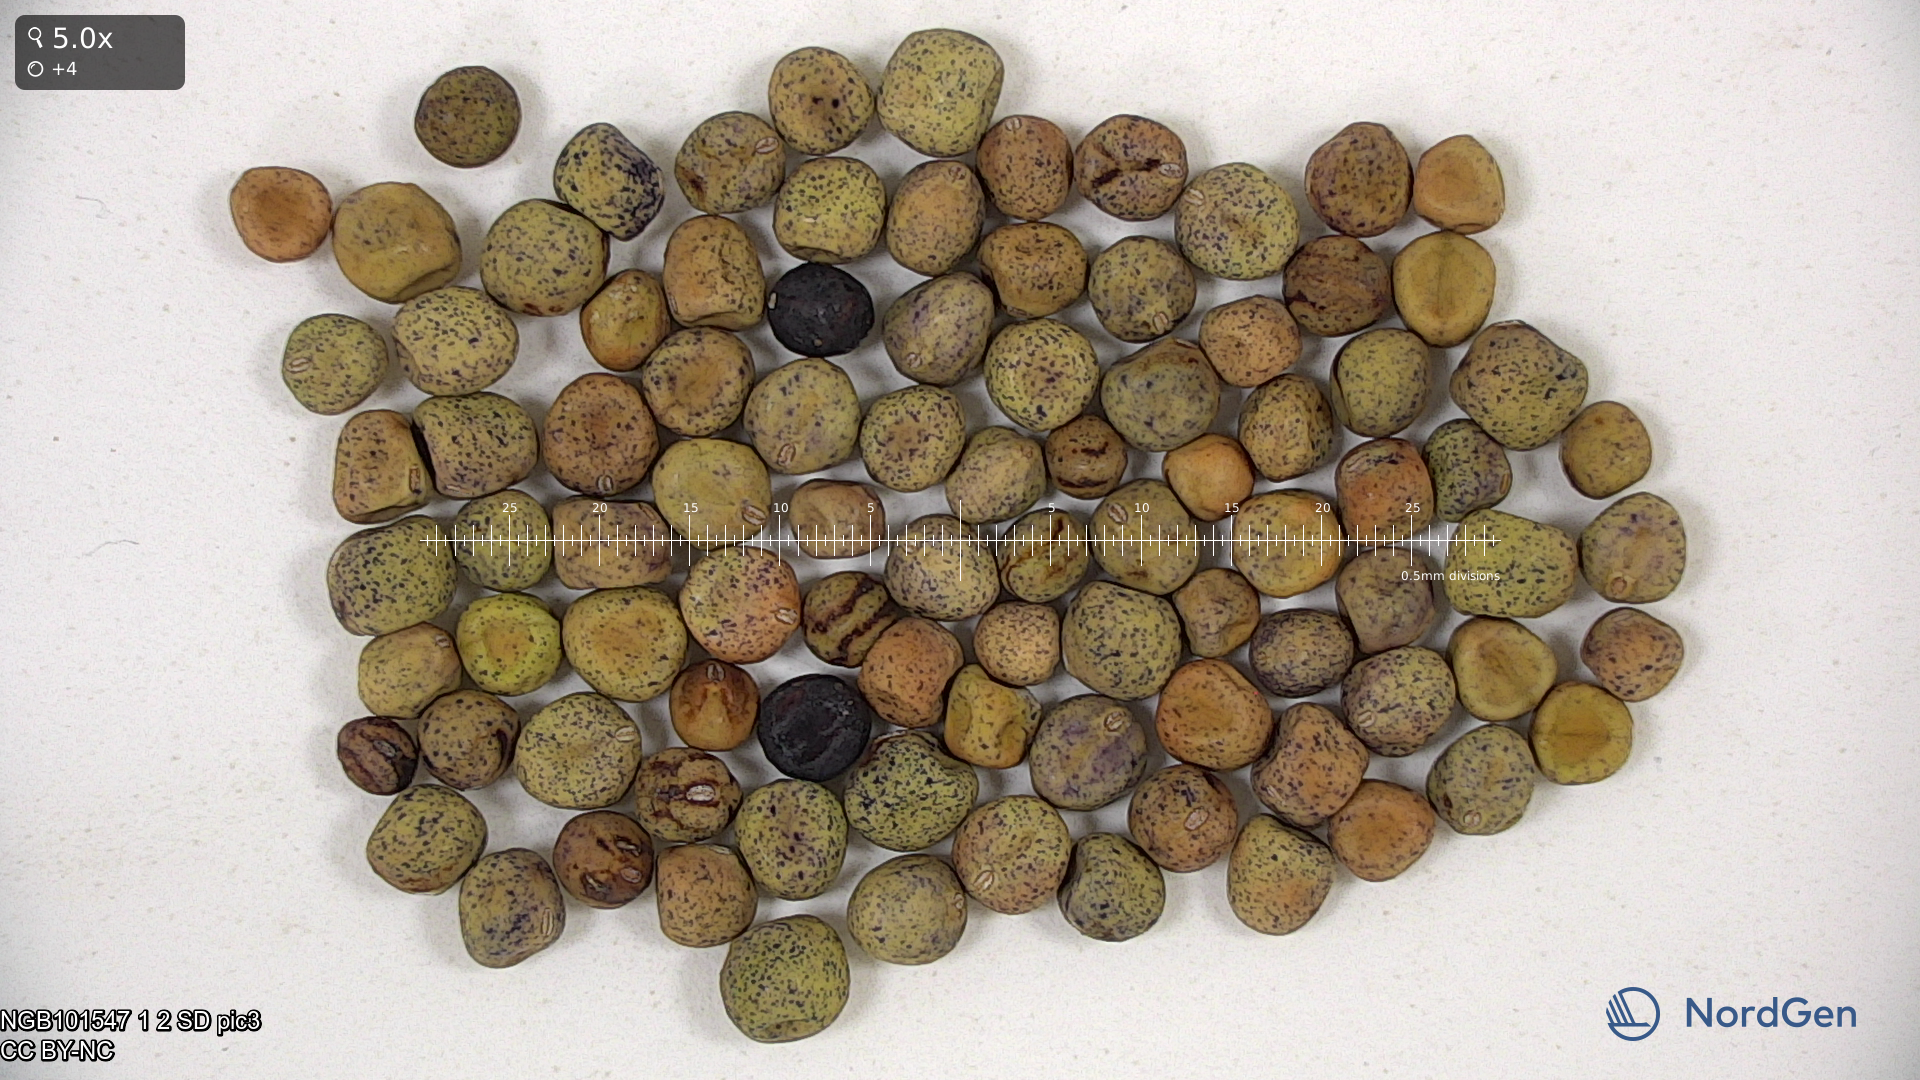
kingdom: Plantae
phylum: Tracheophyta
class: Magnoliopsida
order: Fabales
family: Fabaceae
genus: Lathyrus
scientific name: Lathyrus oleraceus
